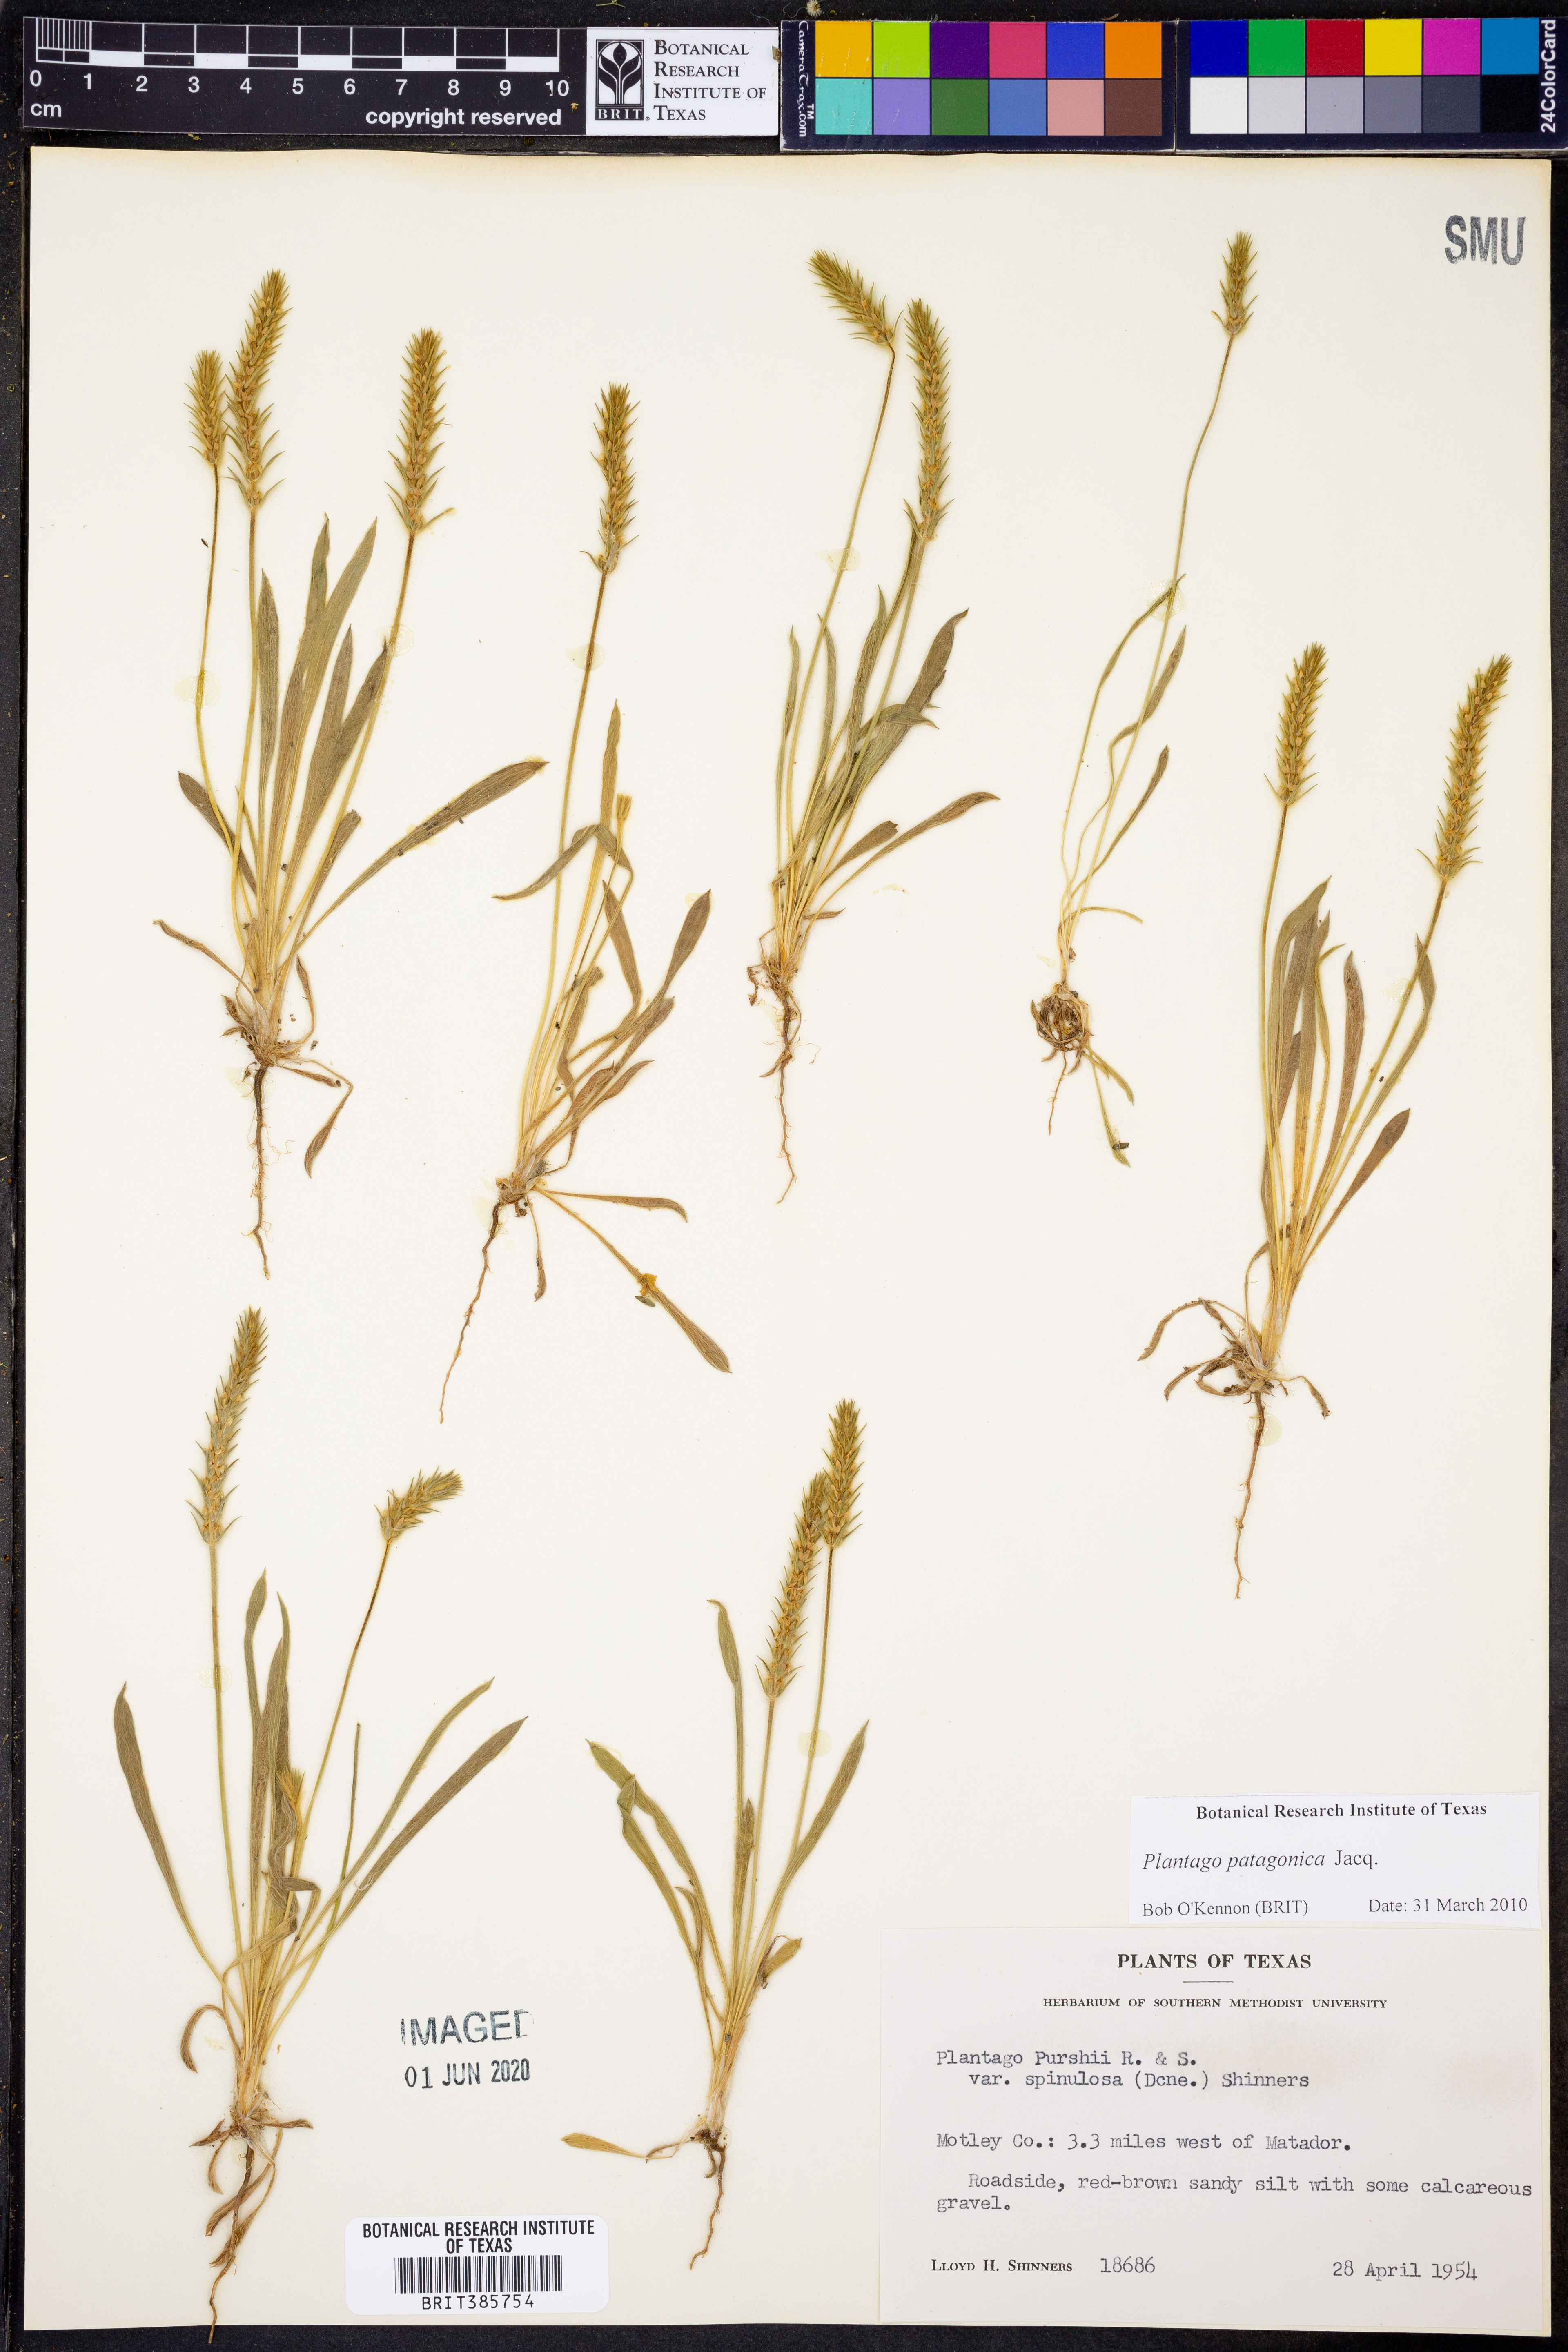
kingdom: Plantae
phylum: Tracheophyta
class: Magnoliopsida
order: Lamiales
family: Plantaginaceae
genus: Plantago
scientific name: Plantago patagonica
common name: Patagonia indian-wheat
